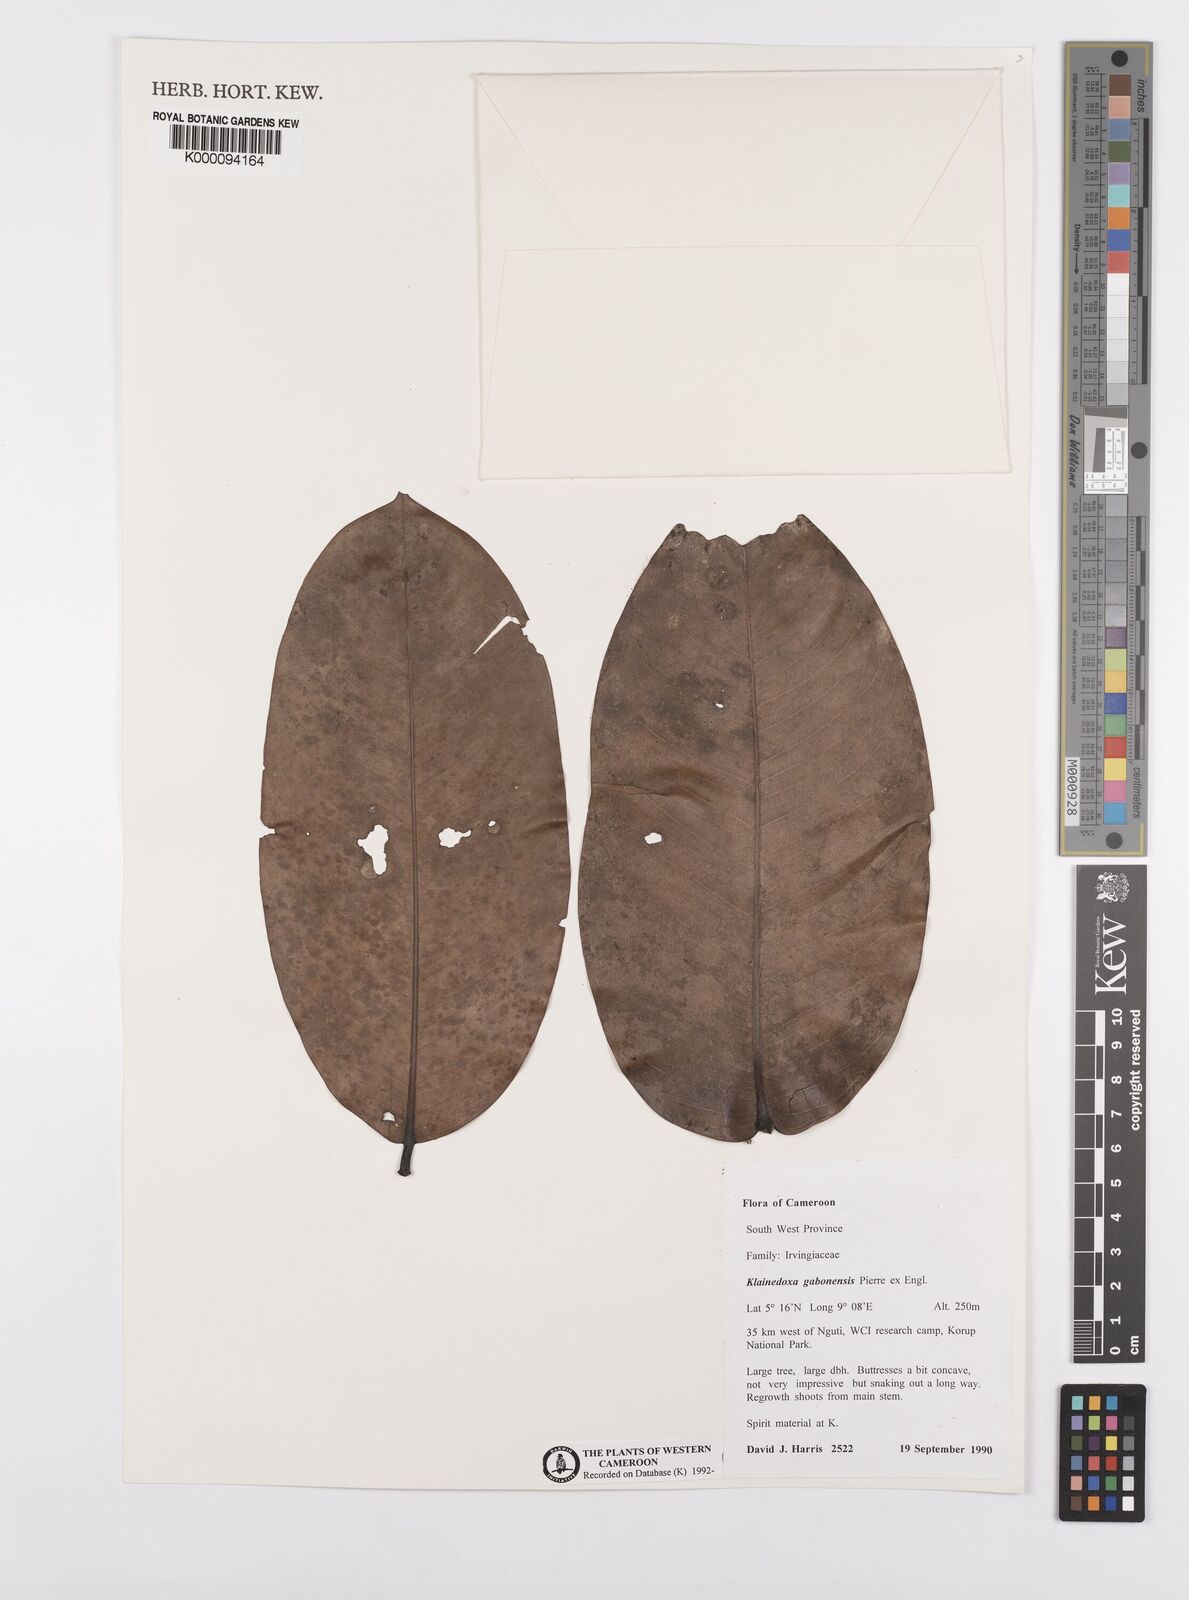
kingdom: Plantae
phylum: Tracheophyta
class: Magnoliopsida
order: Malpighiales
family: Irvingiaceae
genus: Klainedoxa
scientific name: Klainedoxa gabonensis
